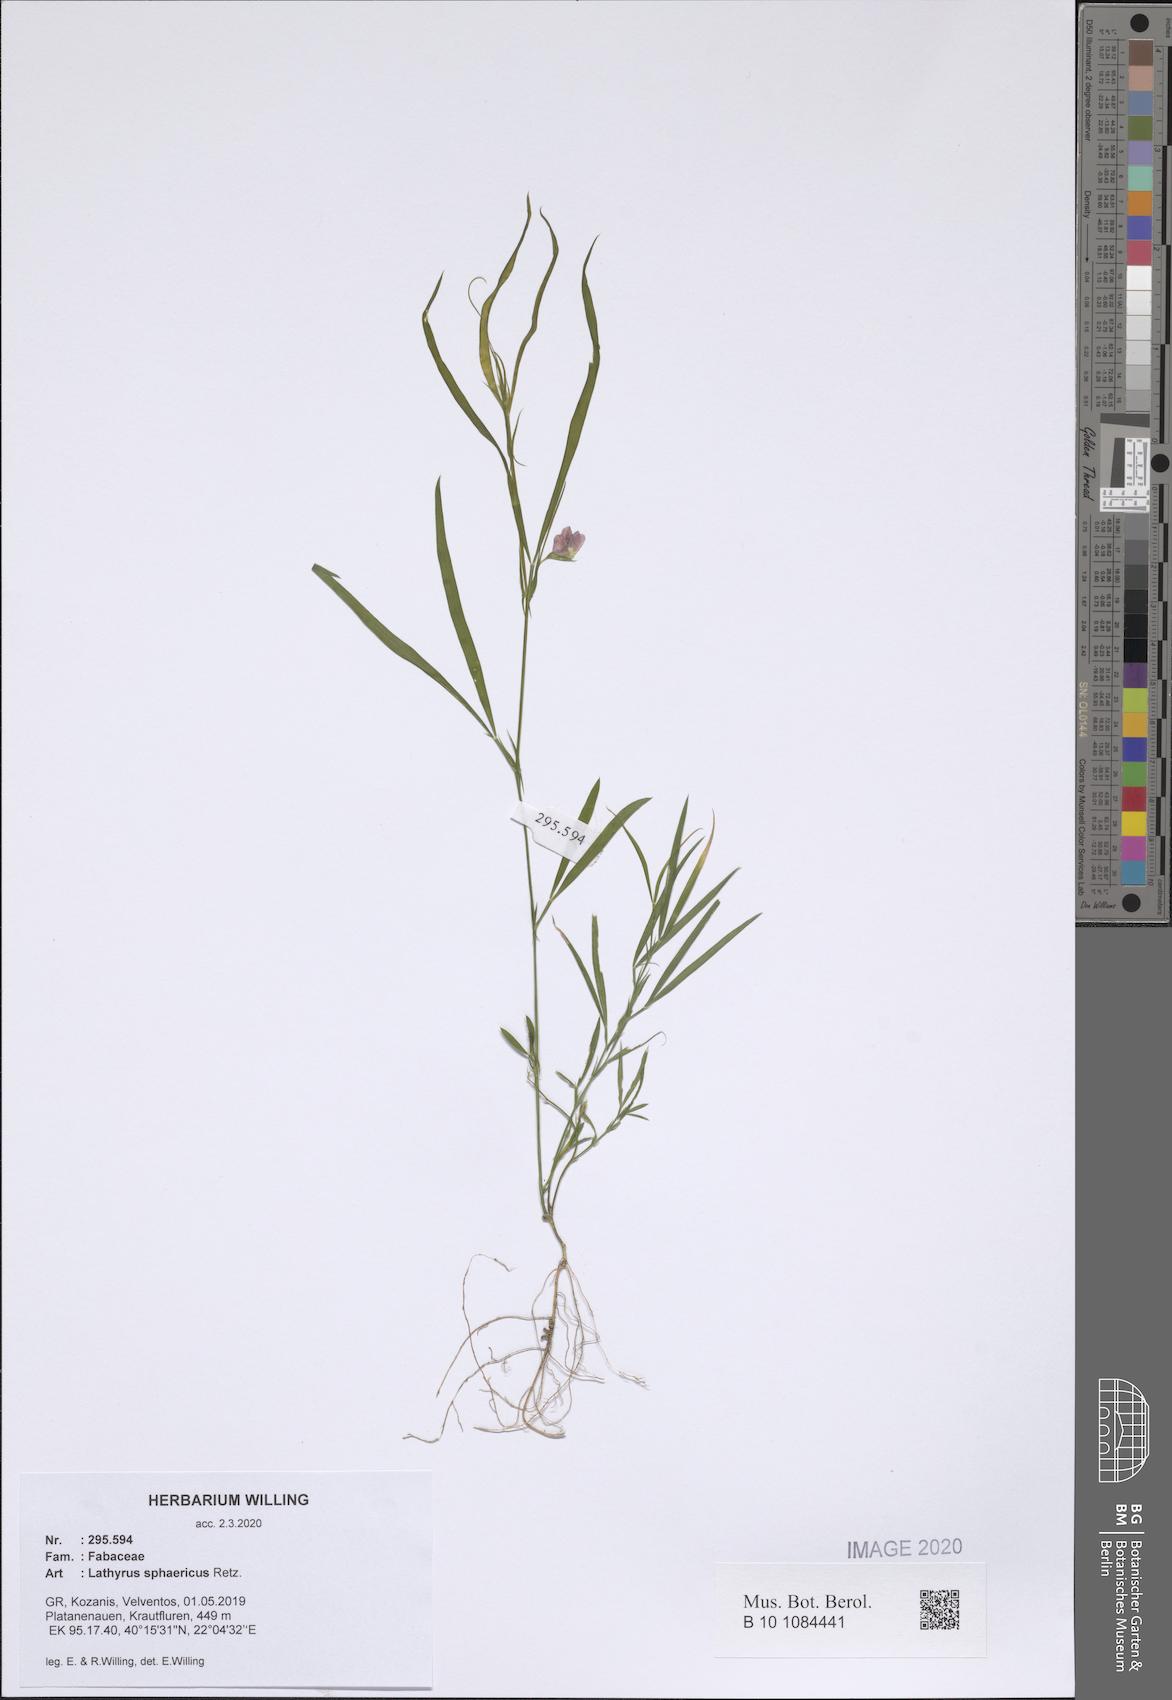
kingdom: Plantae
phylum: Tracheophyta
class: Magnoliopsida
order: Fabales
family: Fabaceae
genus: Lathyrus
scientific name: Lathyrus sphaericus
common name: Grass pea
